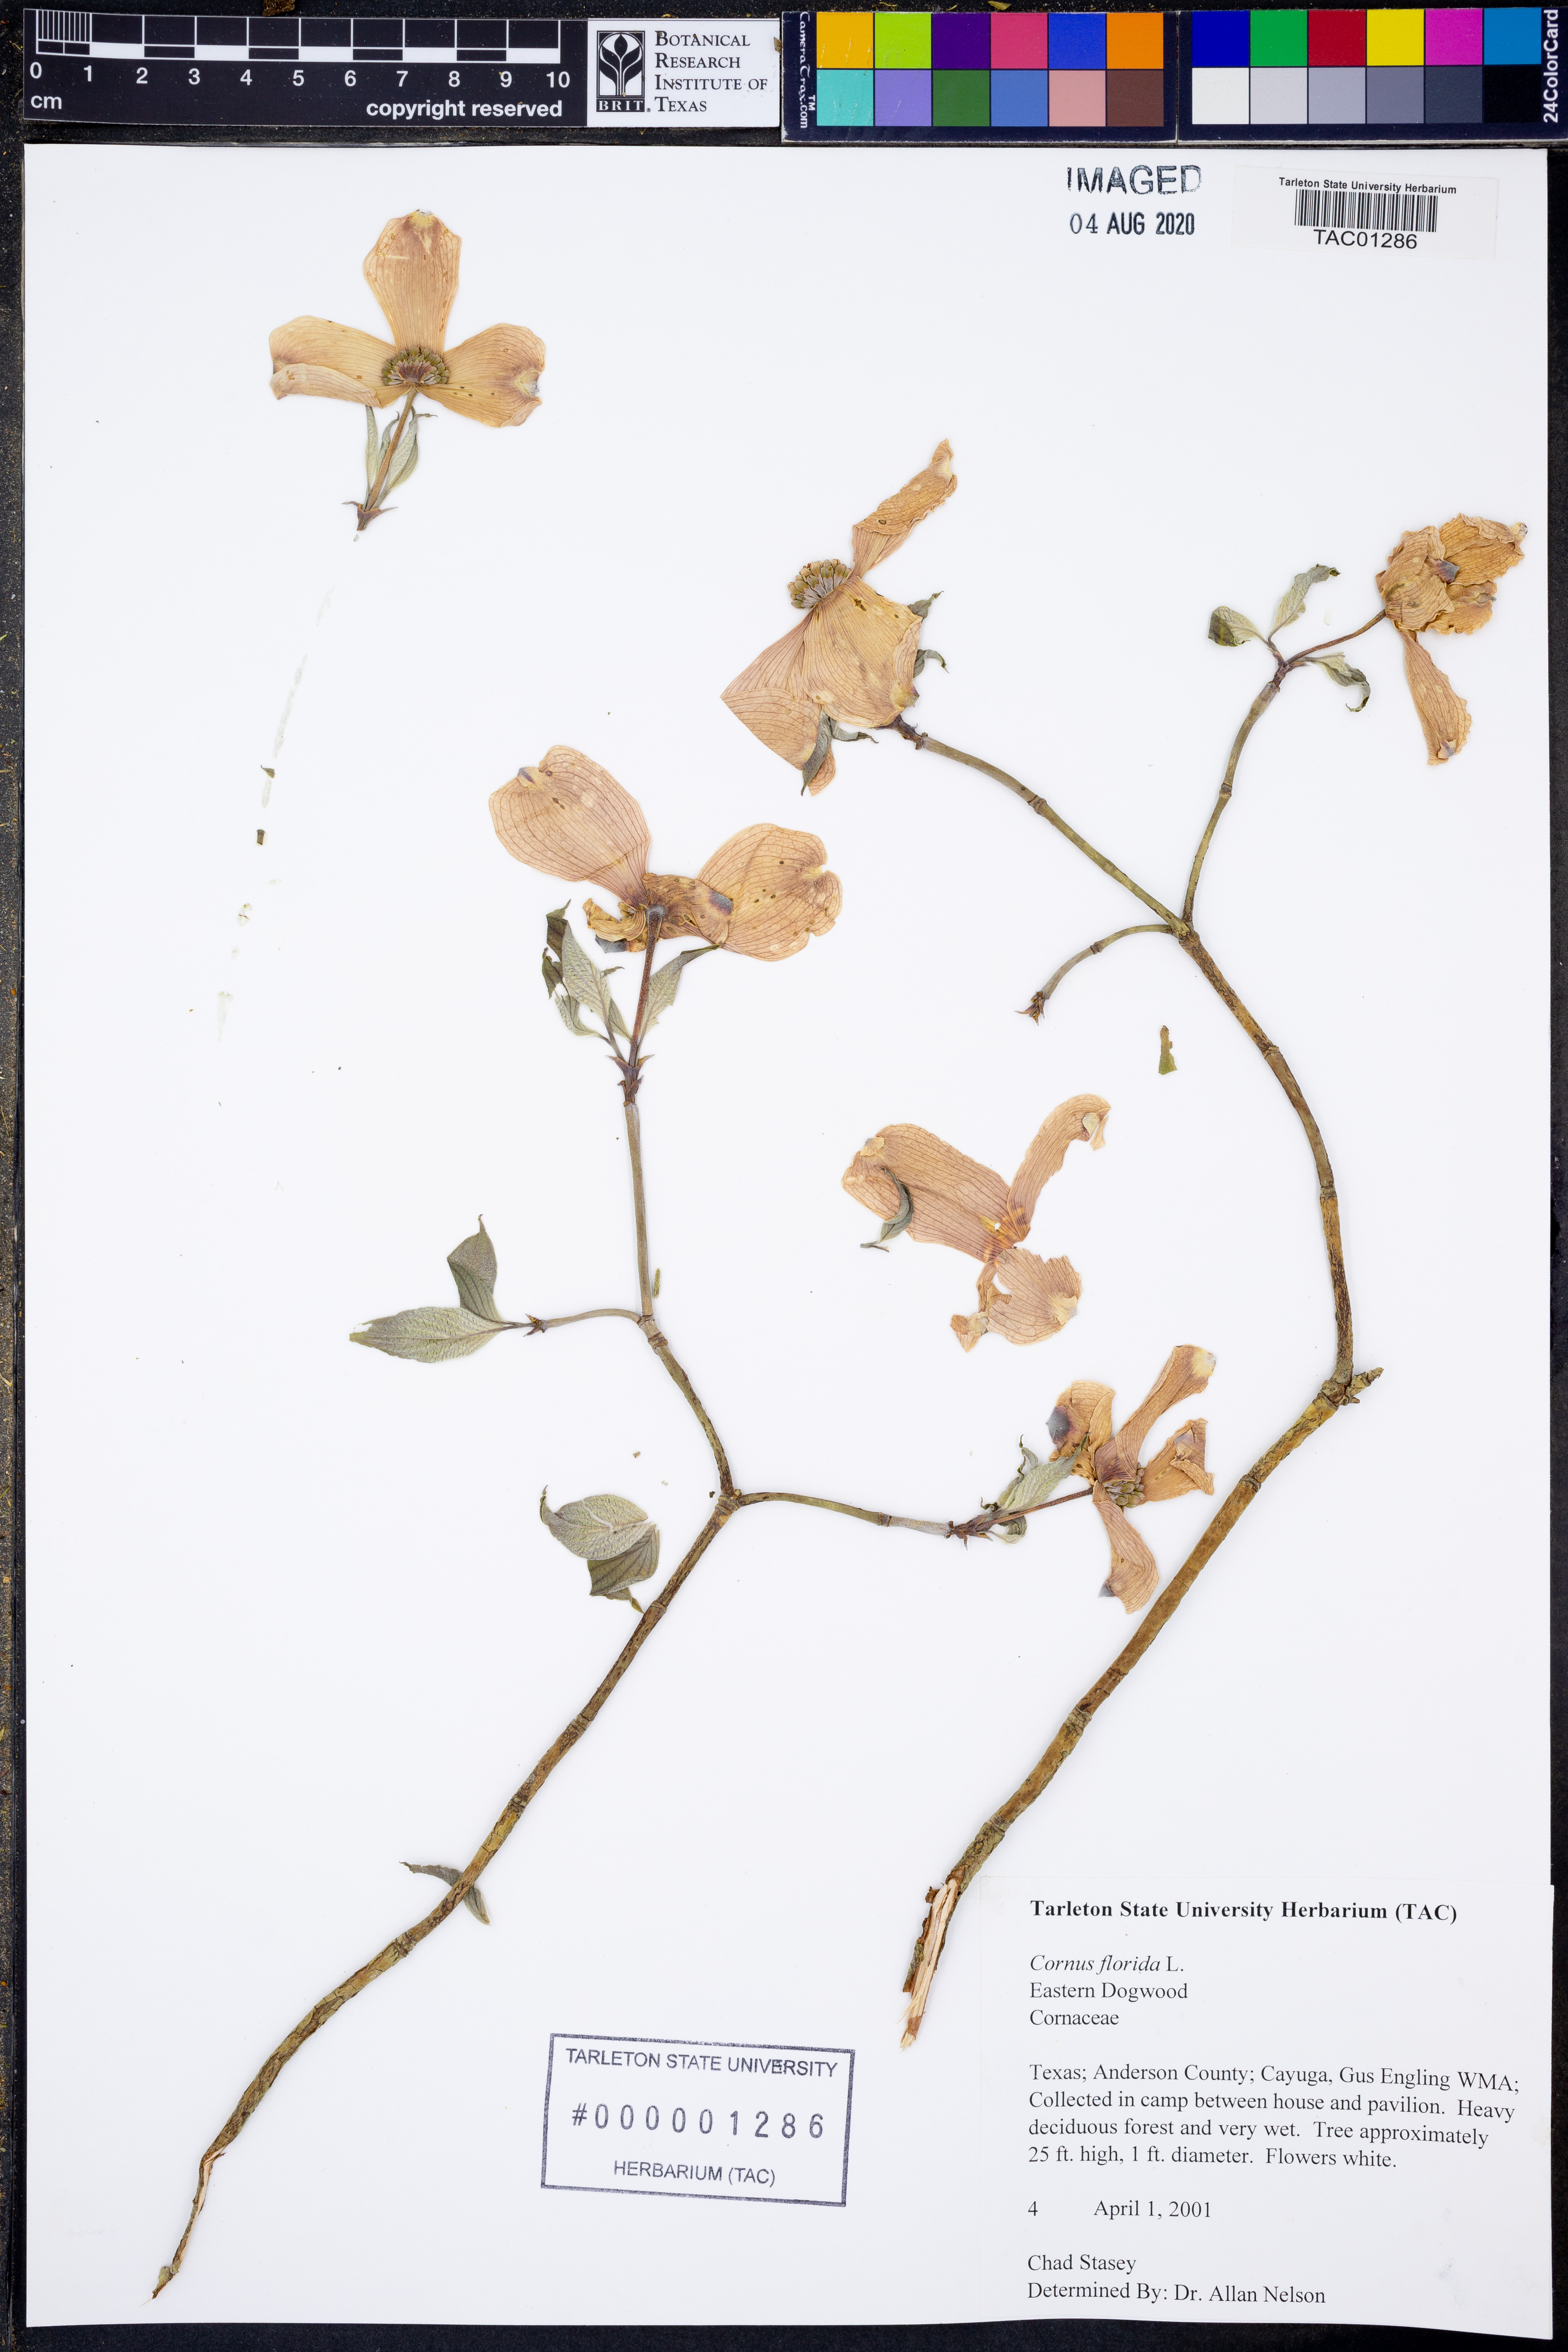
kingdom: Plantae
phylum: Tracheophyta
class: Magnoliopsida
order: Cornales
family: Cornaceae
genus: Cornus
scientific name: Cornus florida
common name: Flowering dogwood
